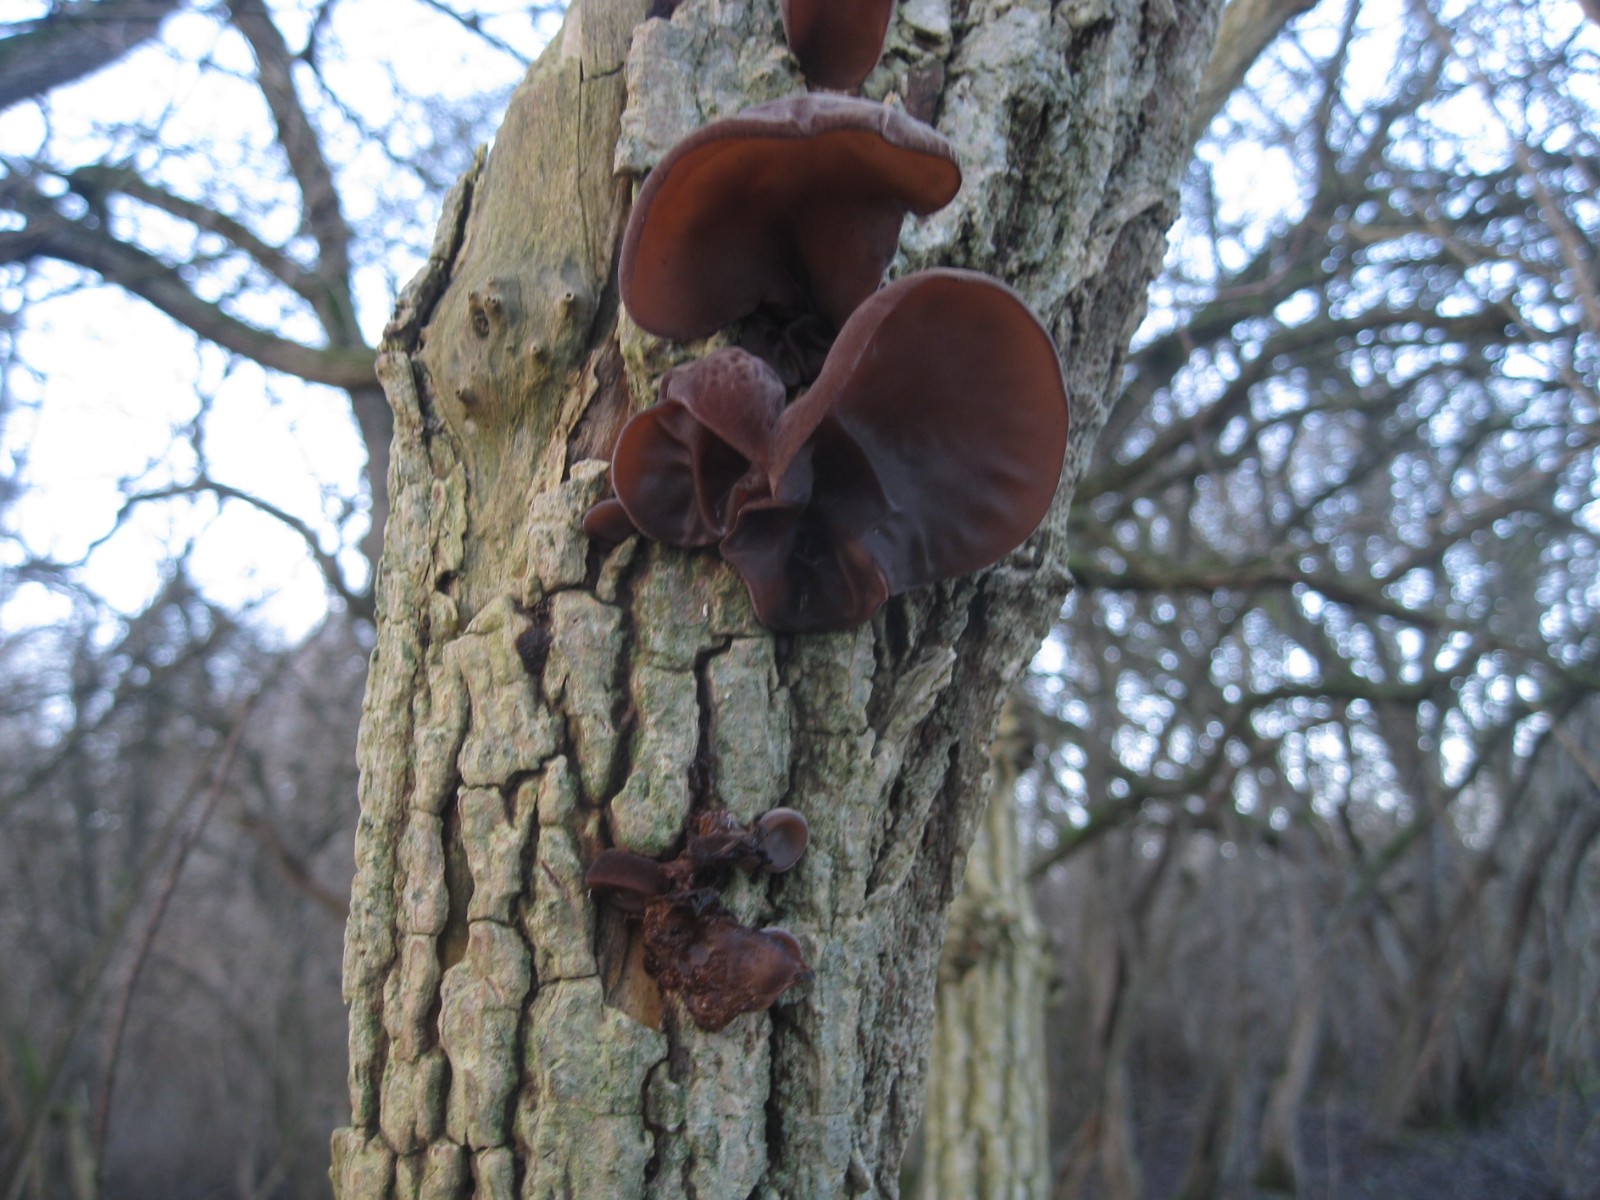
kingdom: Fungi
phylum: Basidiomycota
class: Agaricomycetes
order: Auriculariales
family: Auriculariaceae
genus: Auricularia
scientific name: Auricularia auricula-judae
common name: almindelig judasøre
